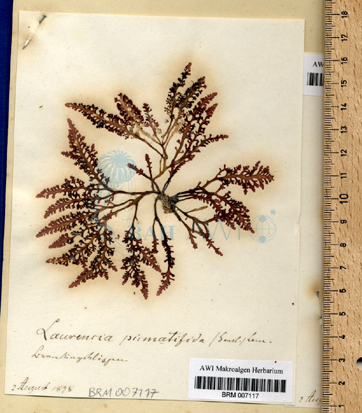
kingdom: Plantae
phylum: Rhodophyta
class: Florideophyceae
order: Ceramiales
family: Rhodomelaceae
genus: Laurencia
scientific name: Laurencia Osmundea pinnatifida
